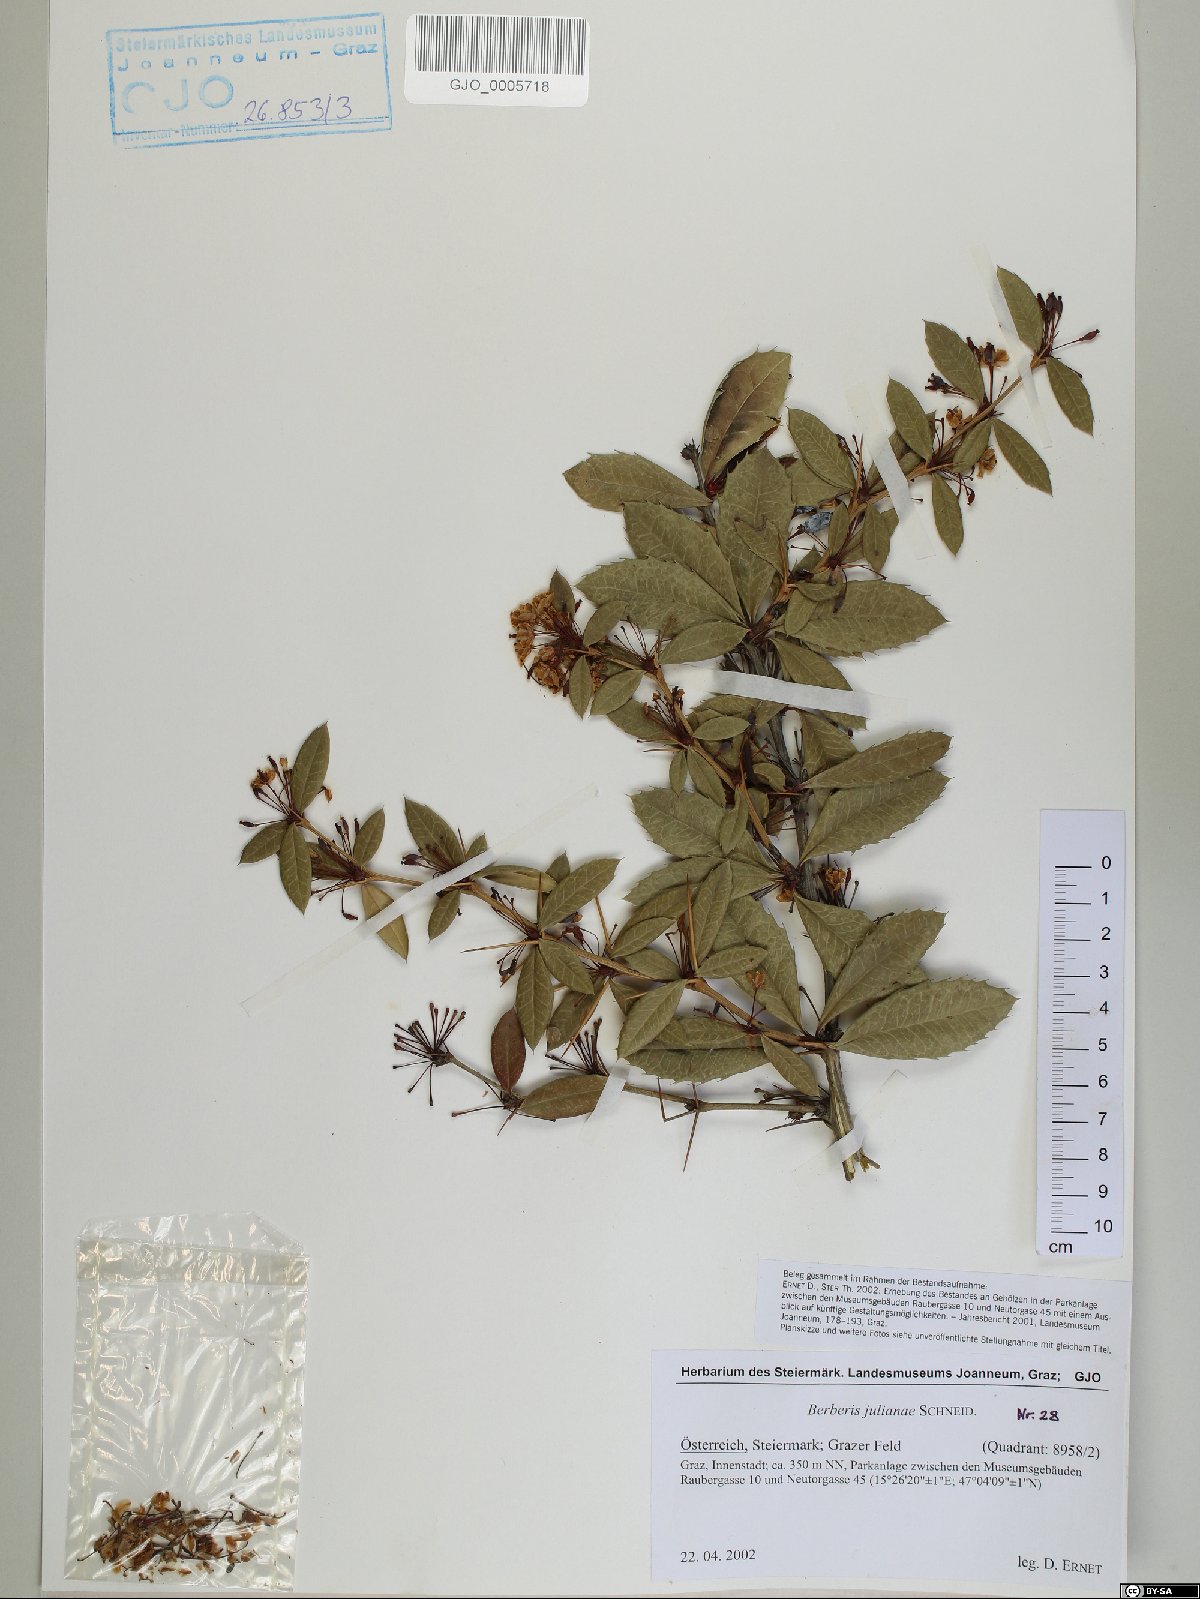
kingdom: Plantae
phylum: Tracheophyta
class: Magnoliopsida
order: Ranunculales
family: Berberidaceae
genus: Berberis
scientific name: Berberis julianae
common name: Wintergreen barberry
